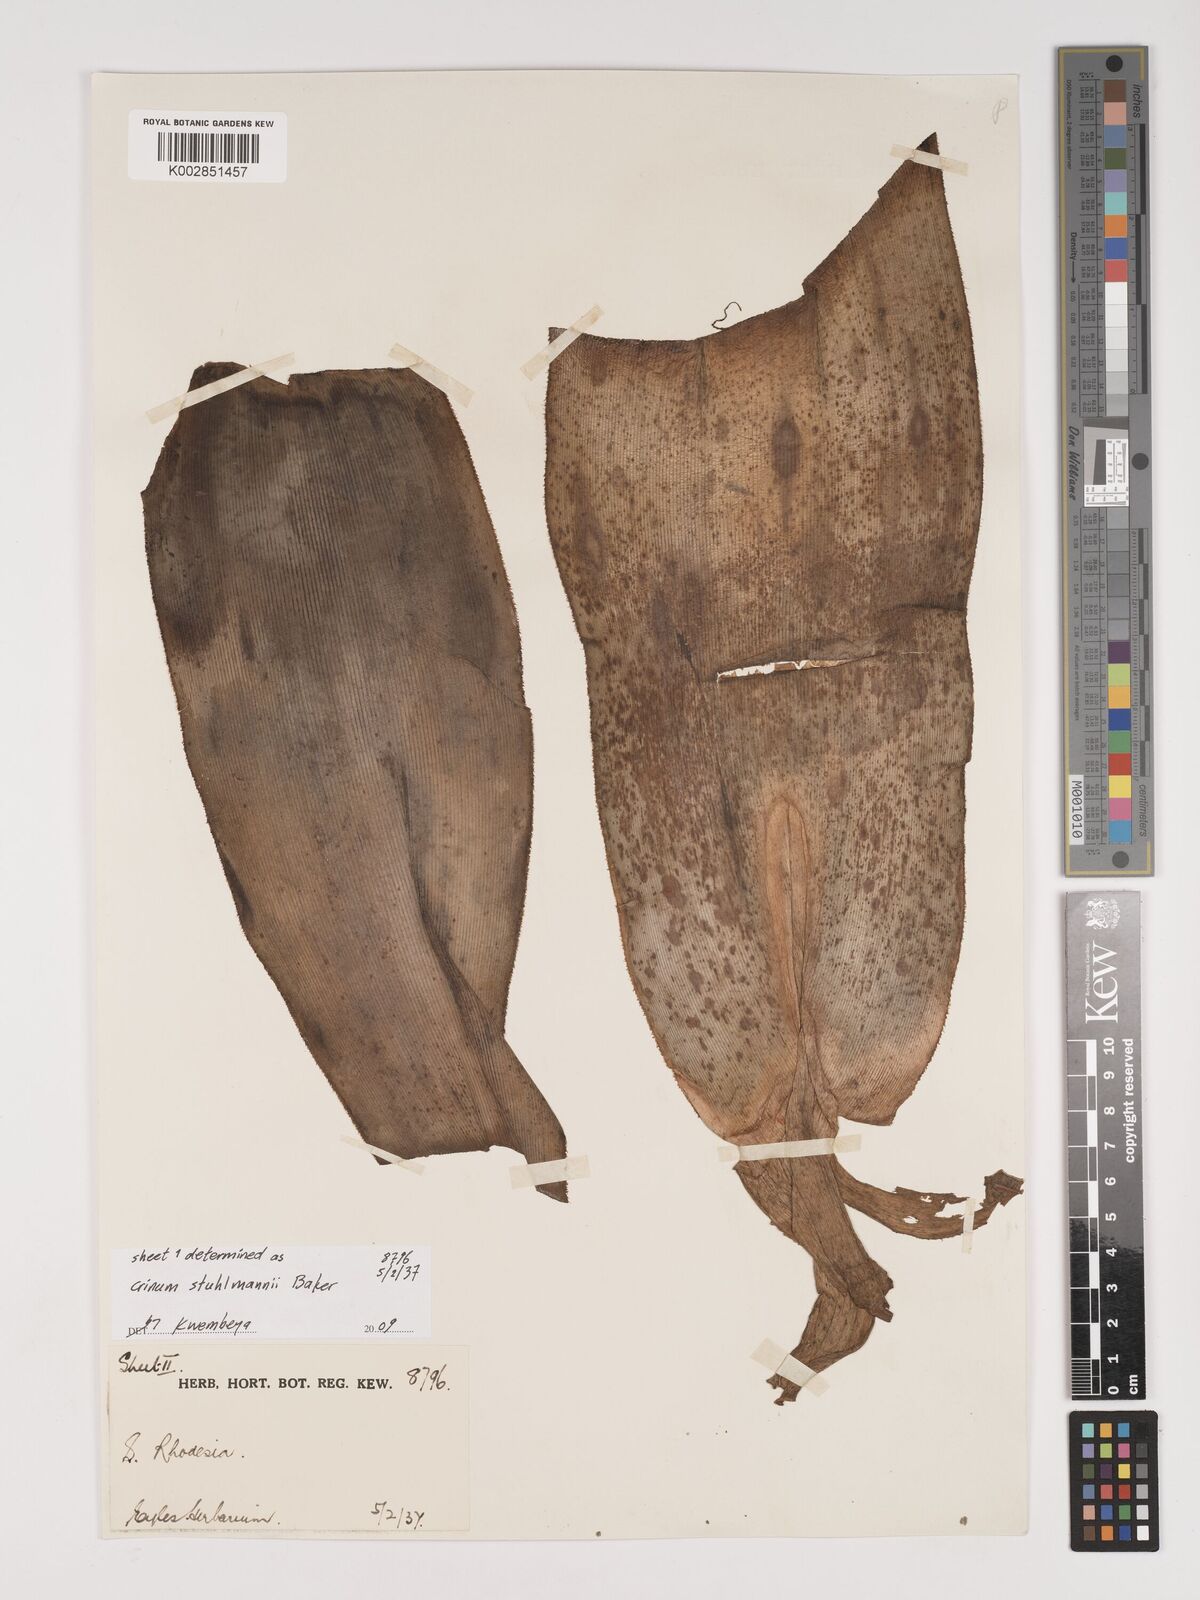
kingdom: Plantae
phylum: Tracheophyta
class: Liliopsida
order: Asparagales
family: Amaryllidaceae
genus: Crinum
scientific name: Crinum stuhlmannii
